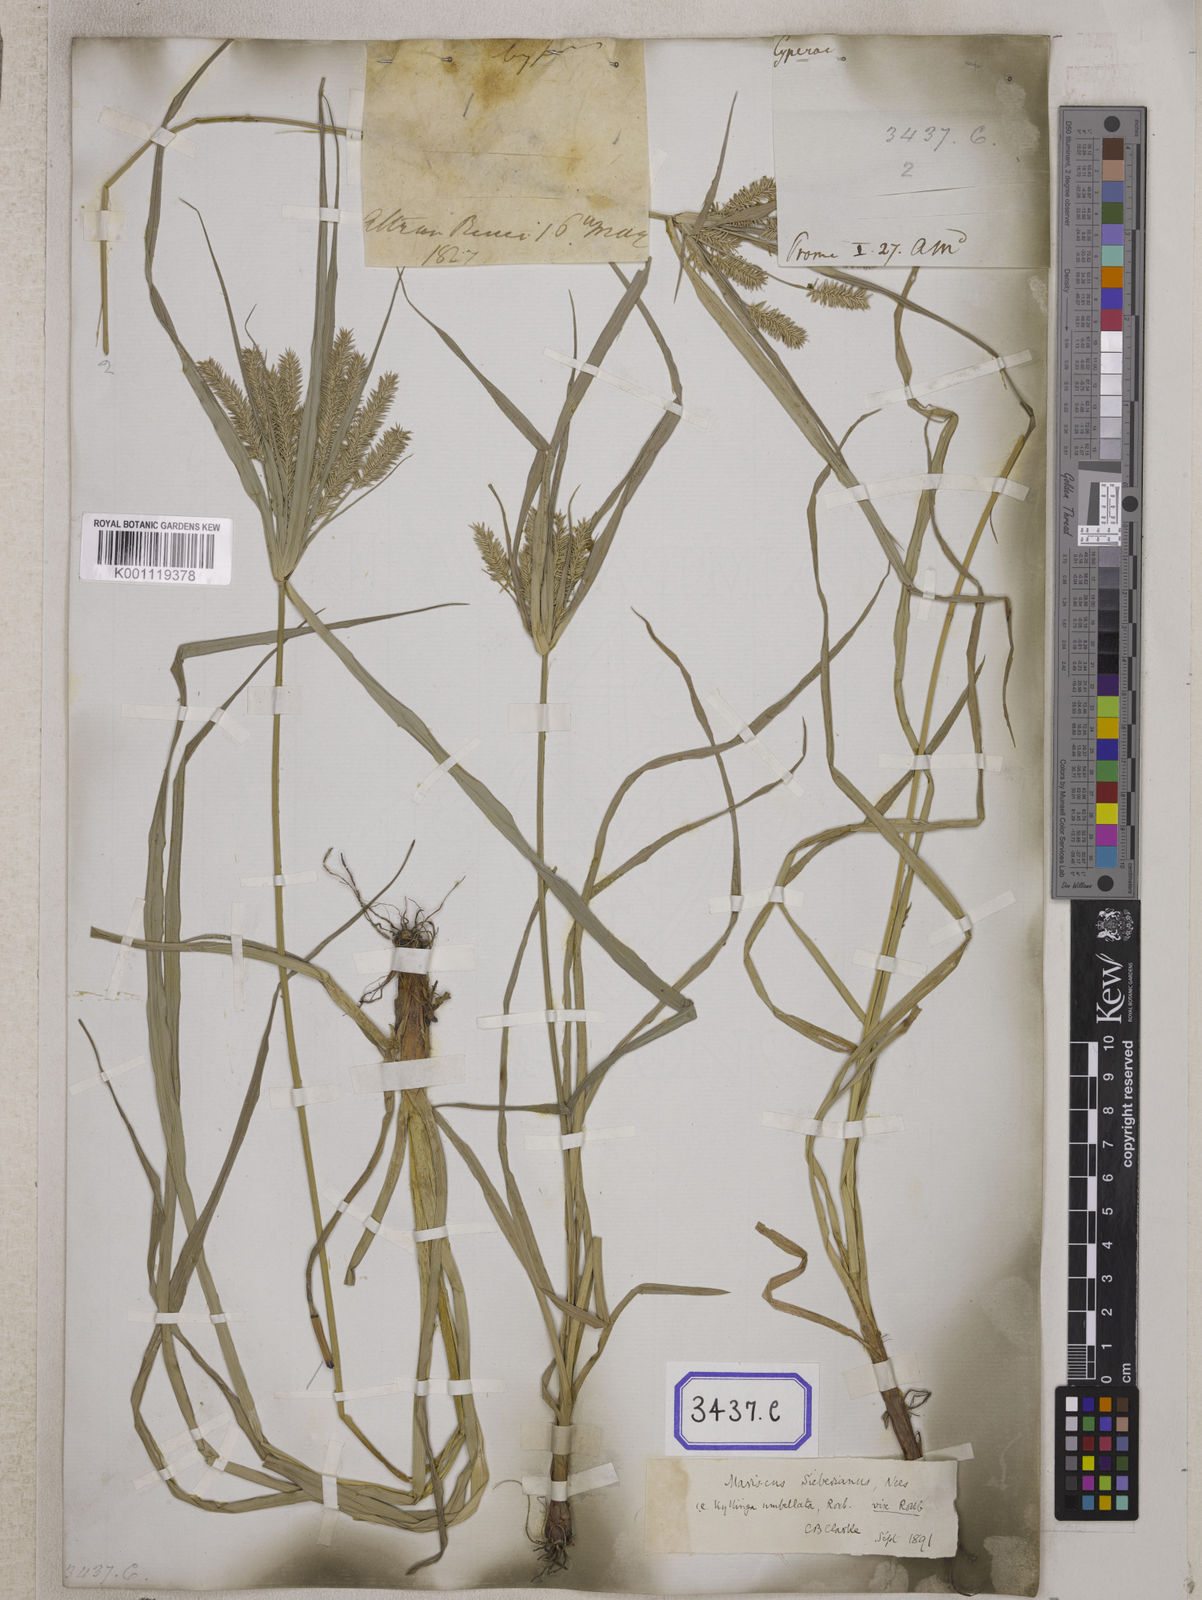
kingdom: Plantae
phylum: Tracheophyta
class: Liliopsida
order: Poales
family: Cyperaceae
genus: Mariscus
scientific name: Mariscus
